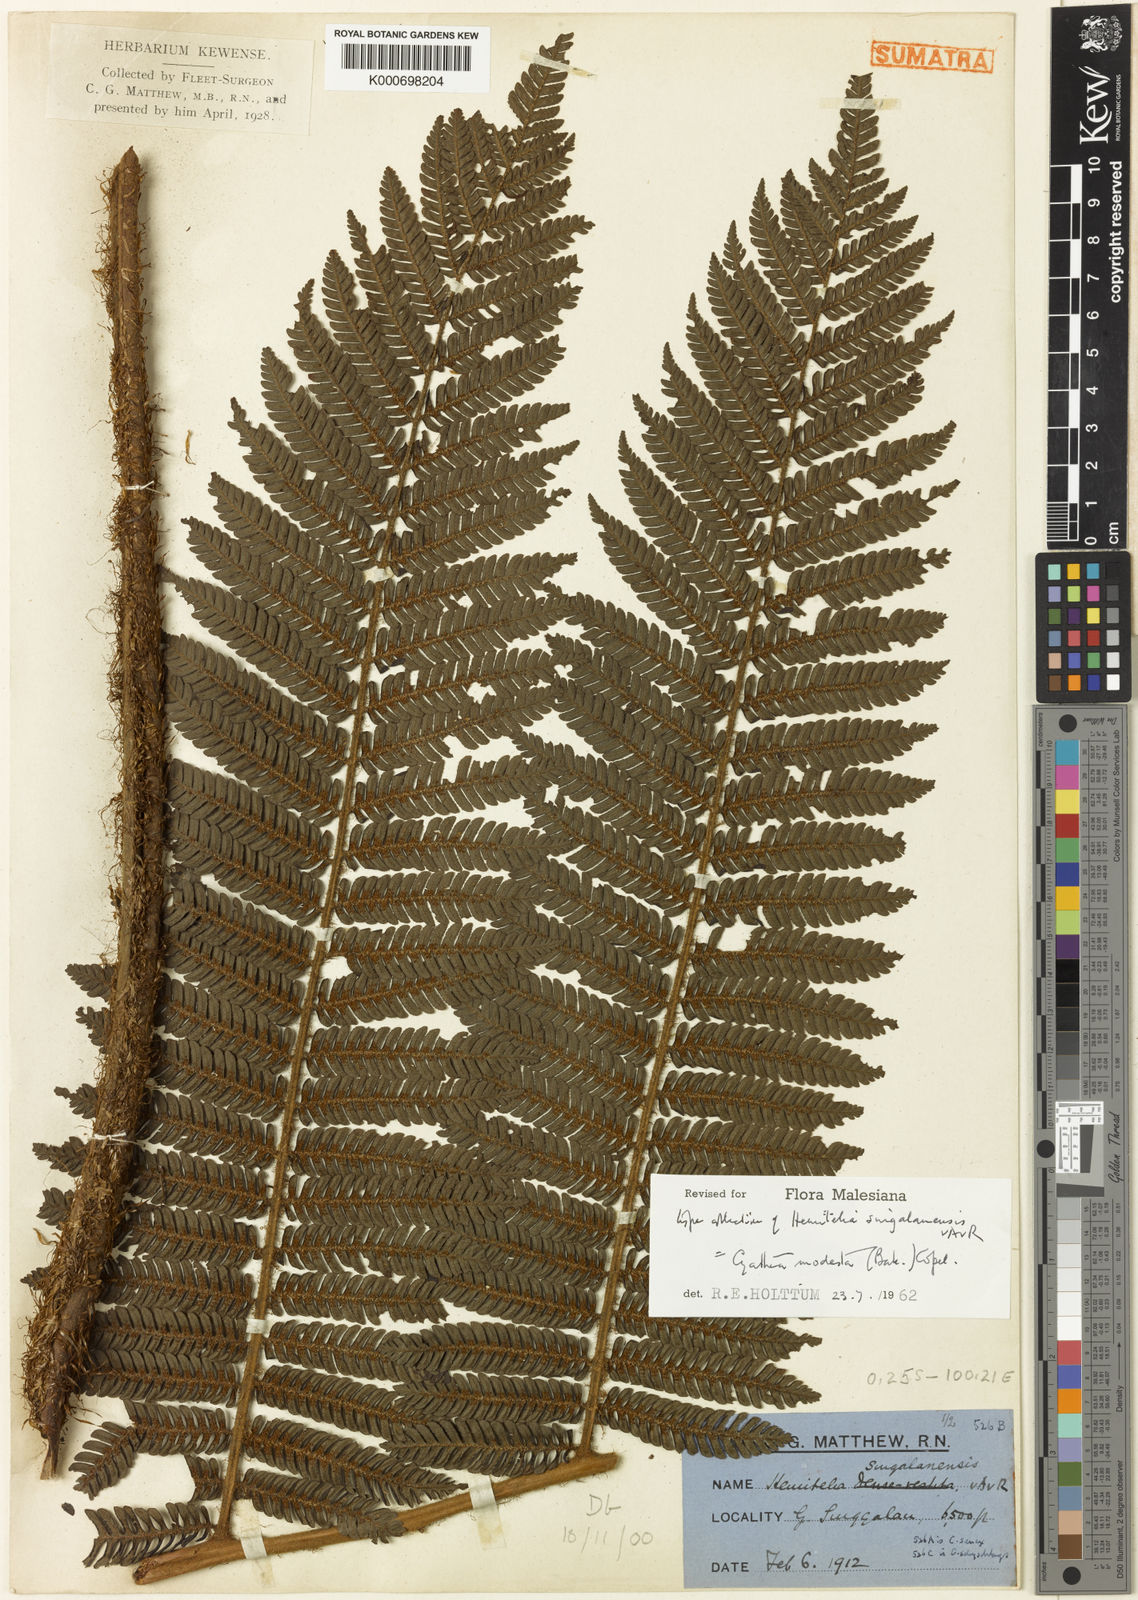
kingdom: Plantae
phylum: Tracheophyta
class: Polypodiopsida
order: Cyatheales
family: Cyatheaceae
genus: Alsophila
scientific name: Alsophila modesta
